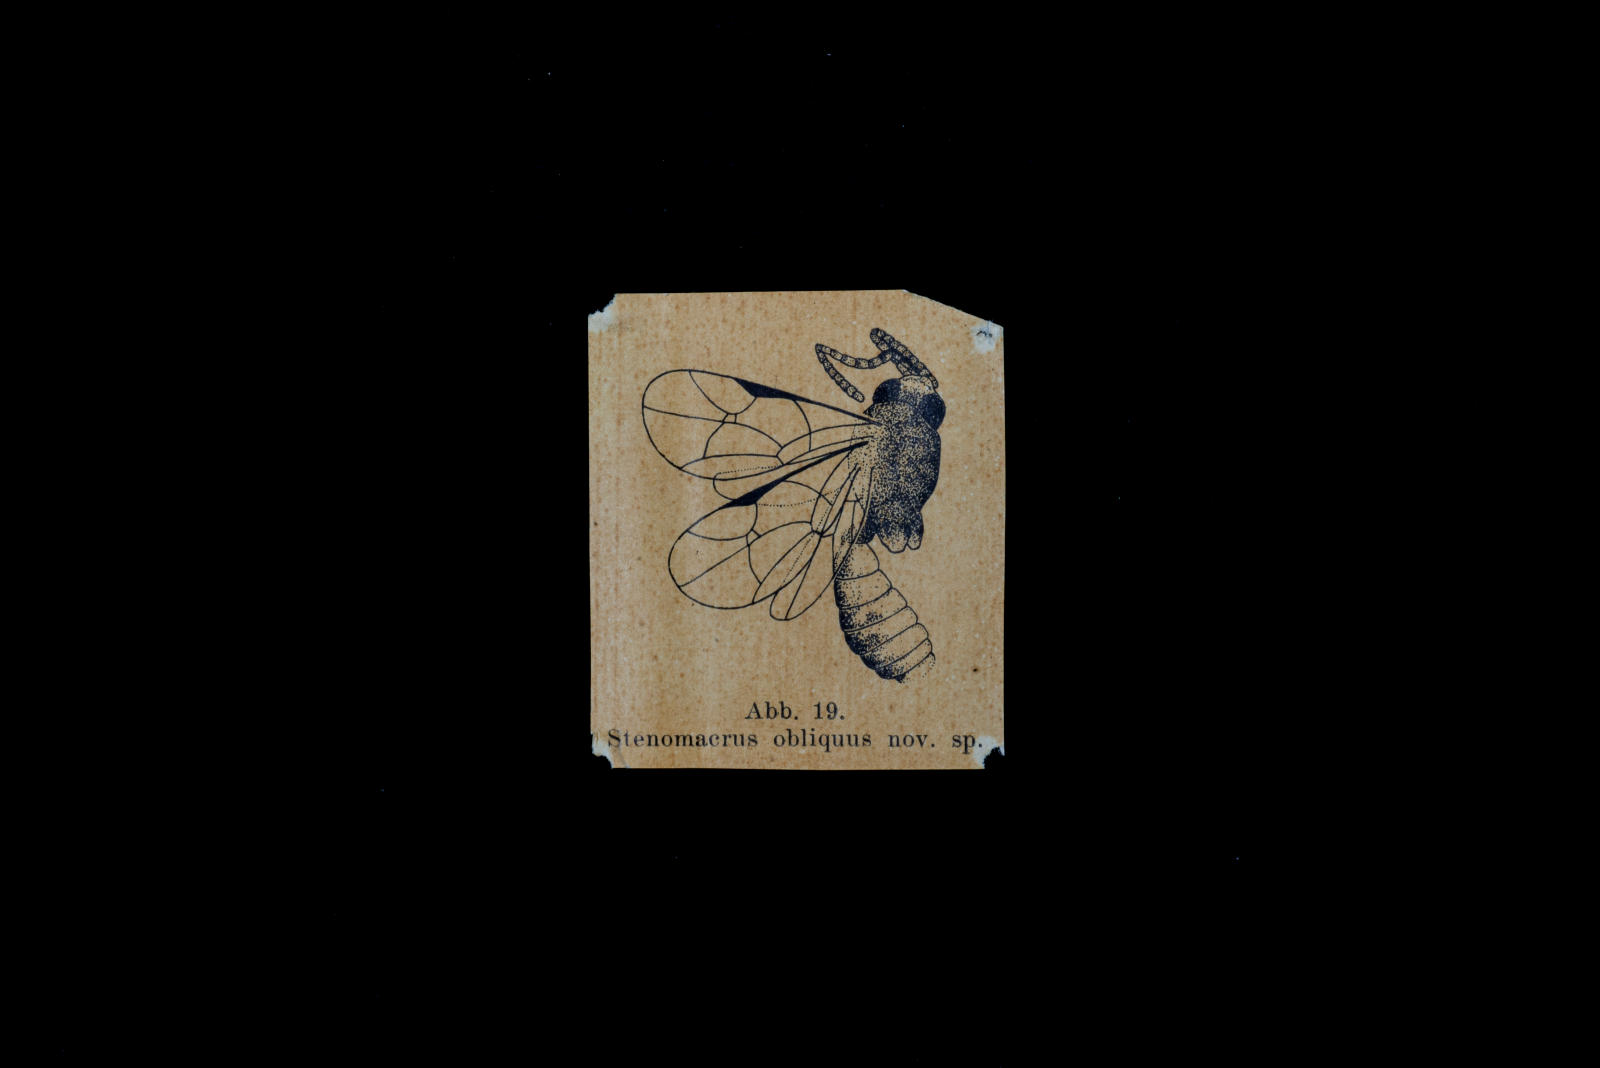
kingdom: Animalia
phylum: Arthropoda
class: Insecta
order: Hymenoptera
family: Ichneumonidae
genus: Stenomacrus
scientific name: Stenomacrus obliquus
